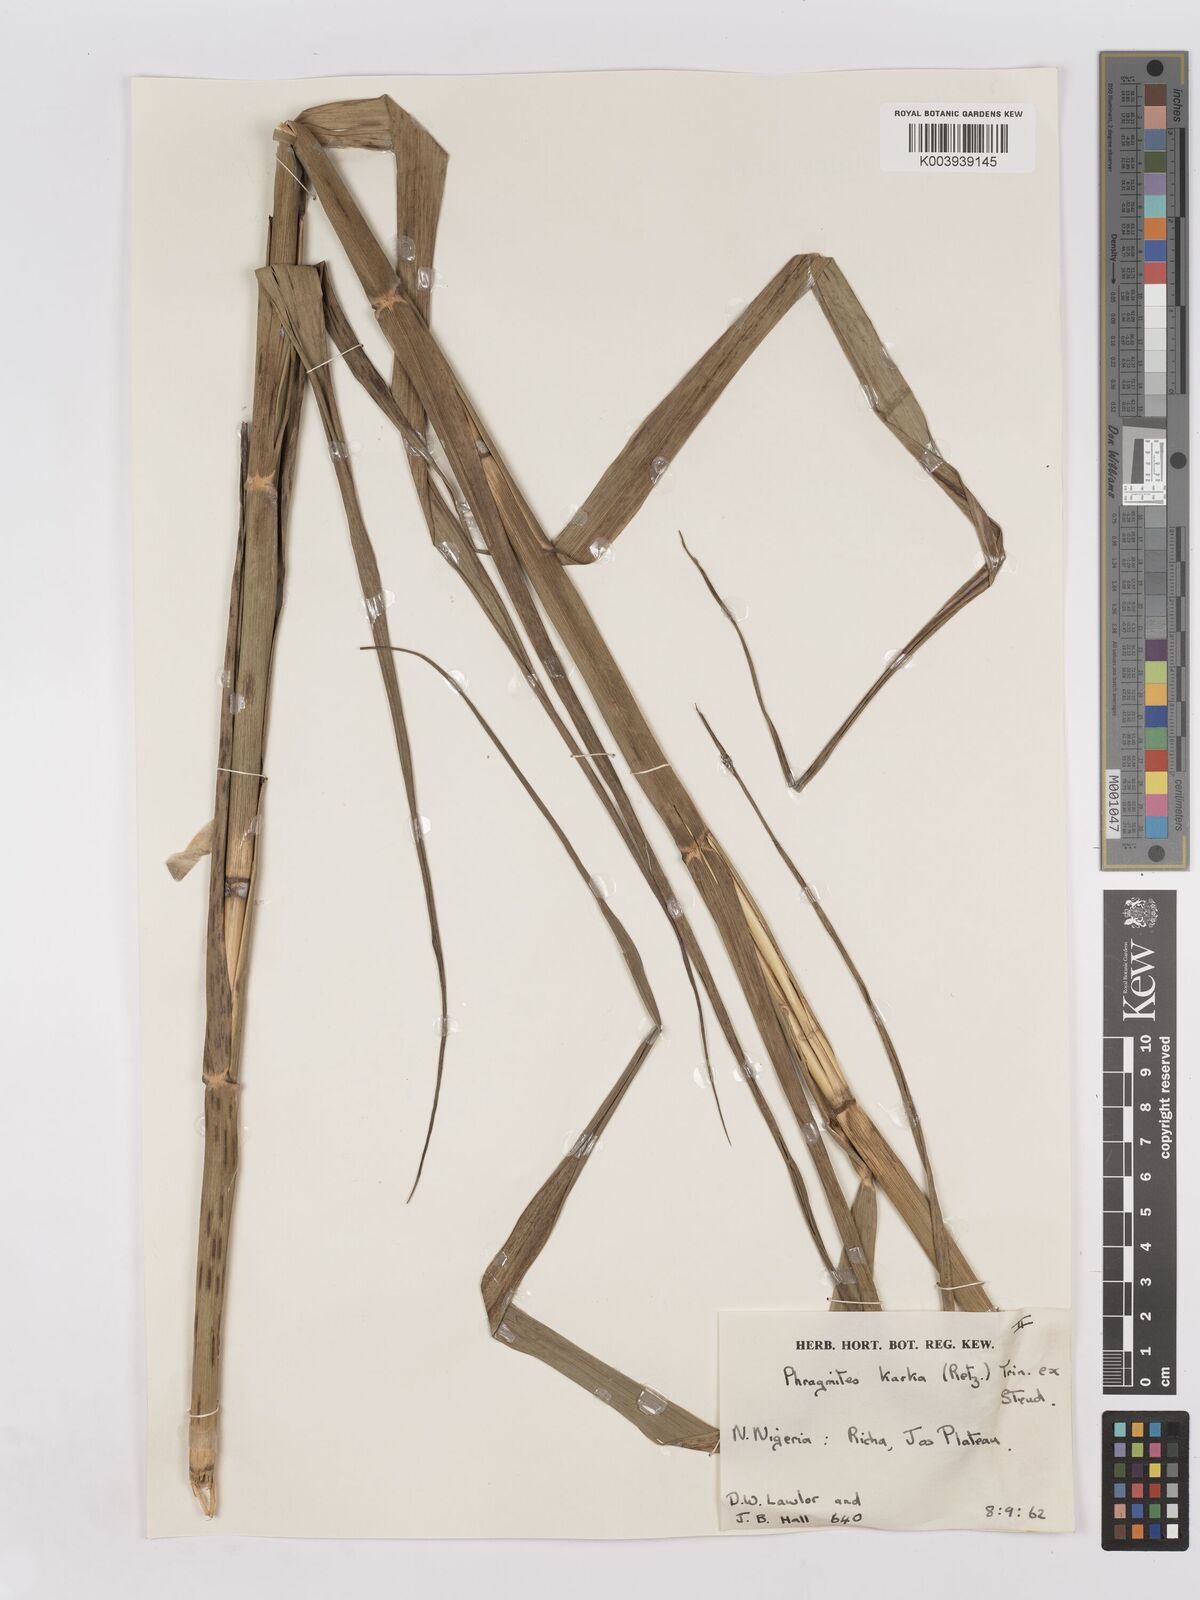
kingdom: Plantae
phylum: Tracheophyta
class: Liliopsida
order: Poales
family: Poaceae
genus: Phragmites
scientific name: Phragmites karka
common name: Tropical reed
